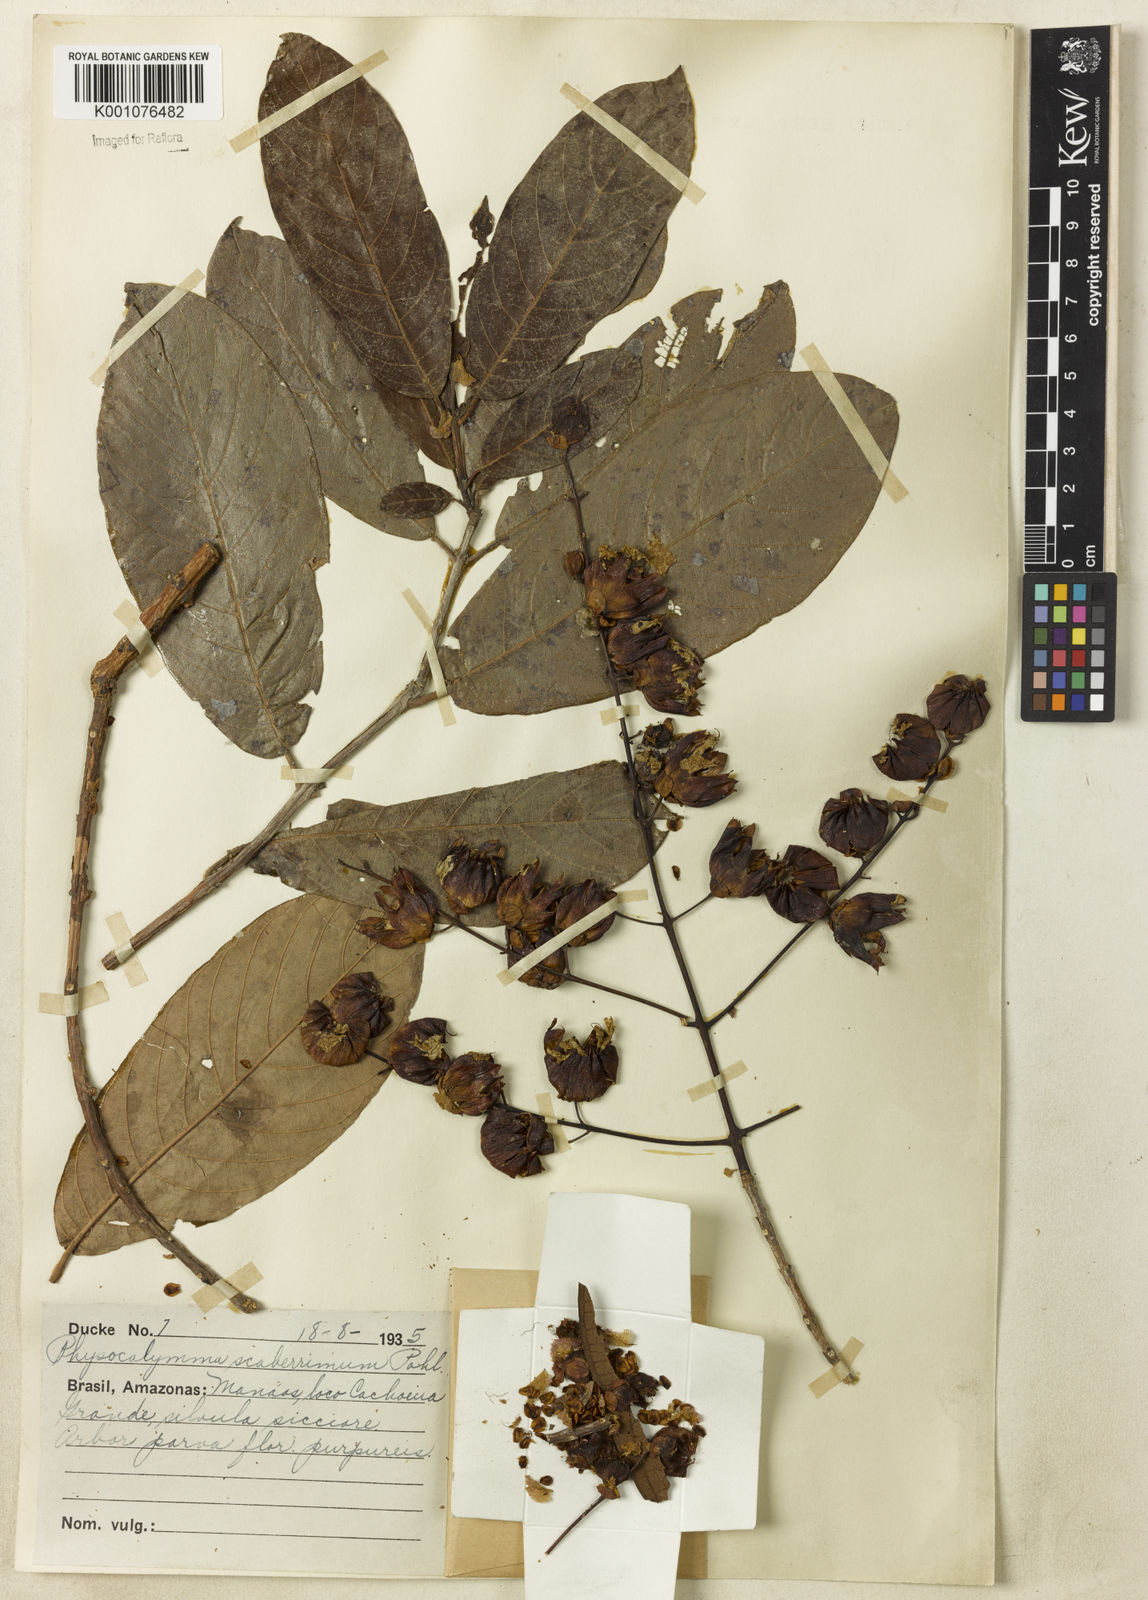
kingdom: Plantae
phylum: Tracheophyta
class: Magnoliopsida
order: Myrtales
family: Lythraceae
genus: Physocalymma
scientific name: Physocalymma scaberrimum
